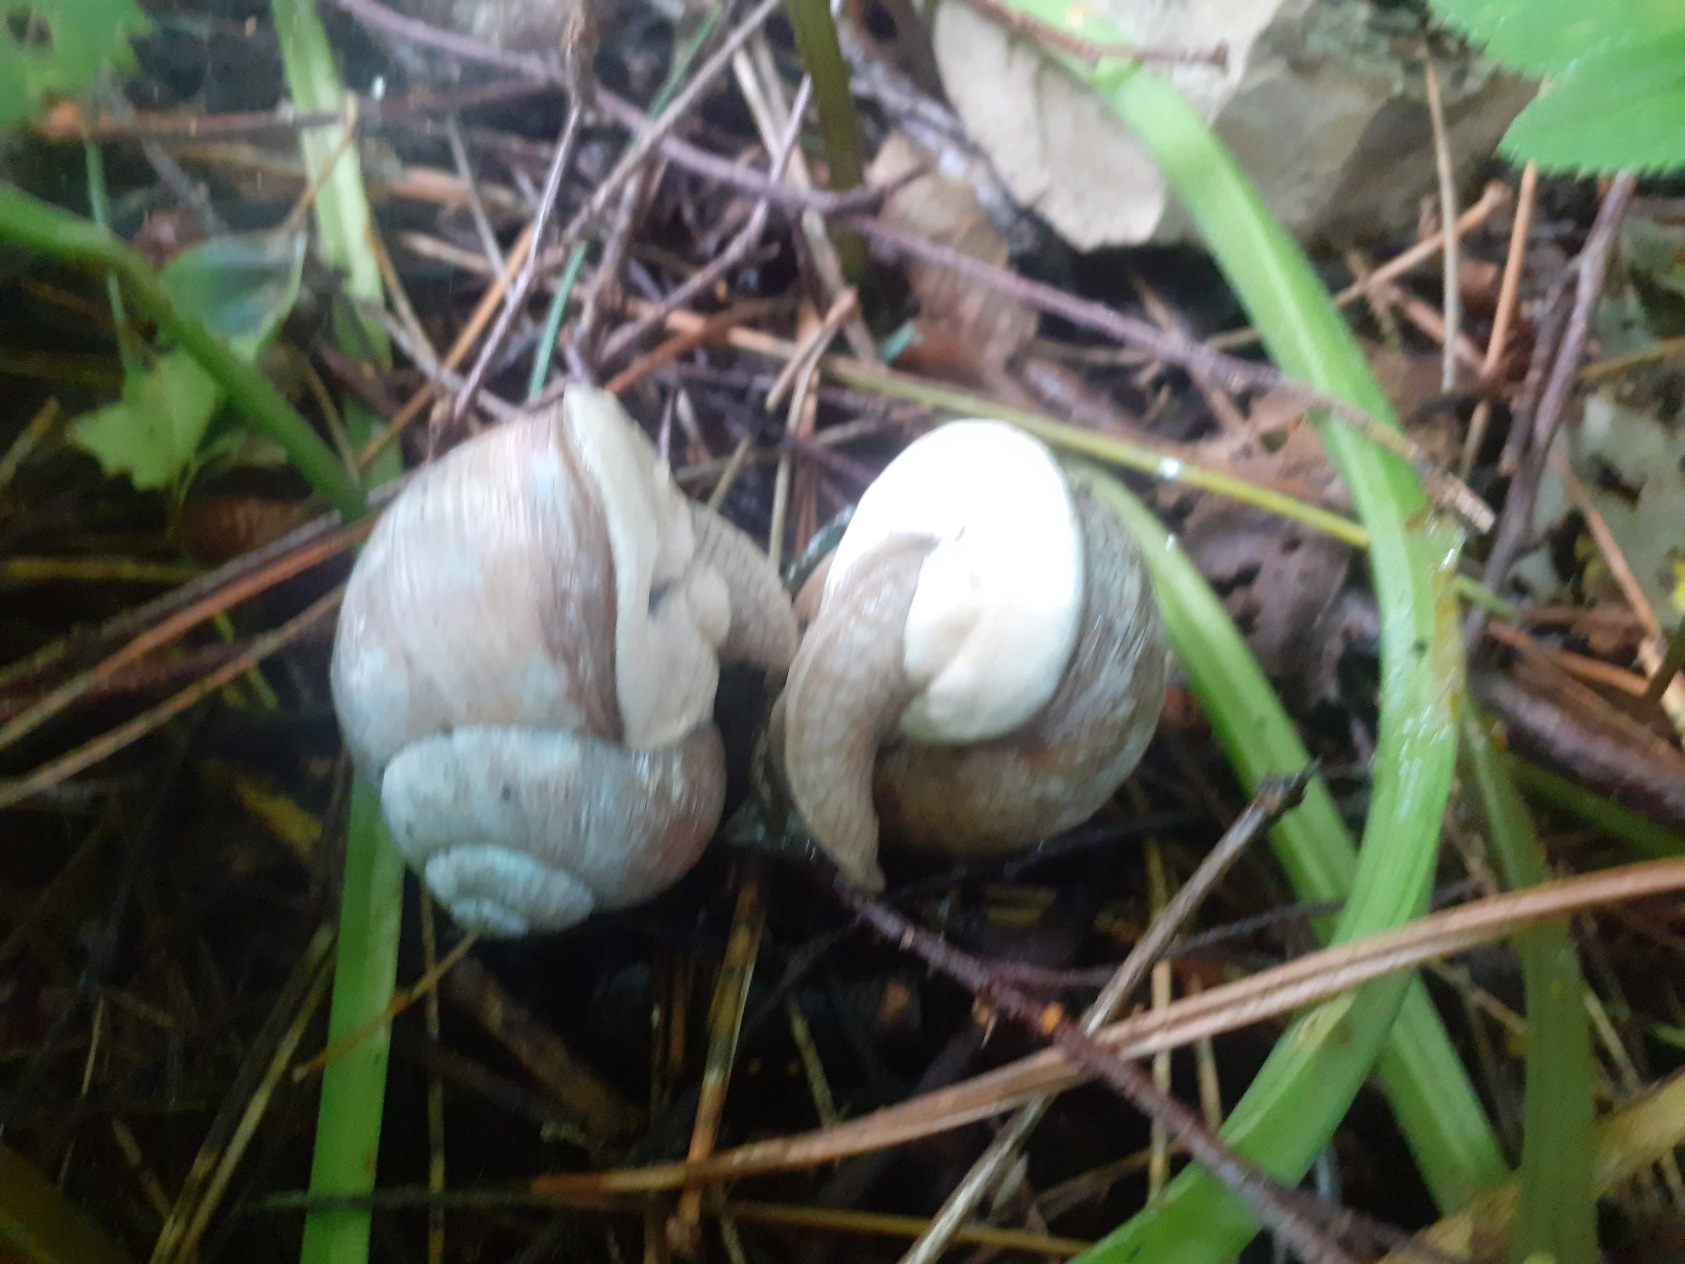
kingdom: Animalia
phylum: Mollusca
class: Gastropoda
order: Stylommatophora
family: Helicidae
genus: Helix
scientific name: Helix pomatia
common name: Vinbjergsnegl
